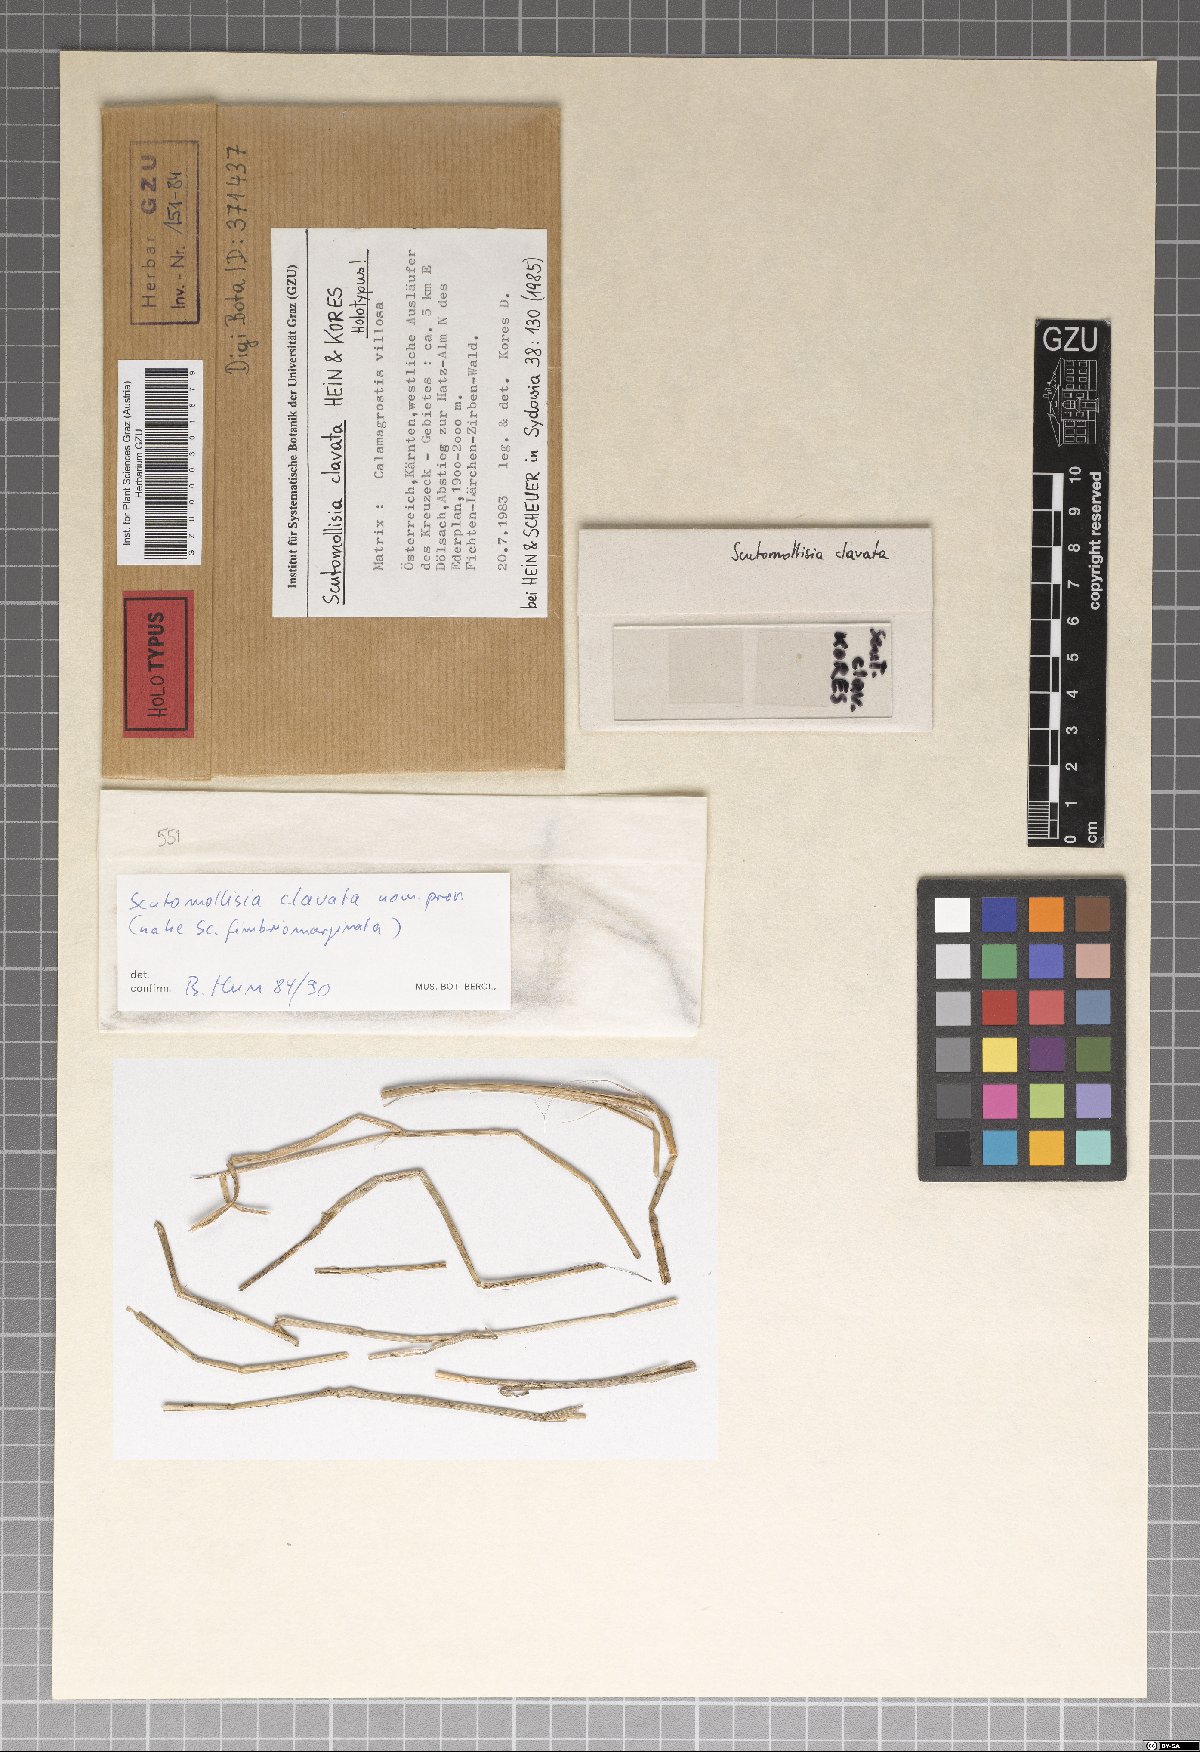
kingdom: Fungi
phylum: Ascomycota
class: Leotiomycetes
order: Helotiales
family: Mollisiaceae
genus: Scutomollisia
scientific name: Scutomollisia clavata
